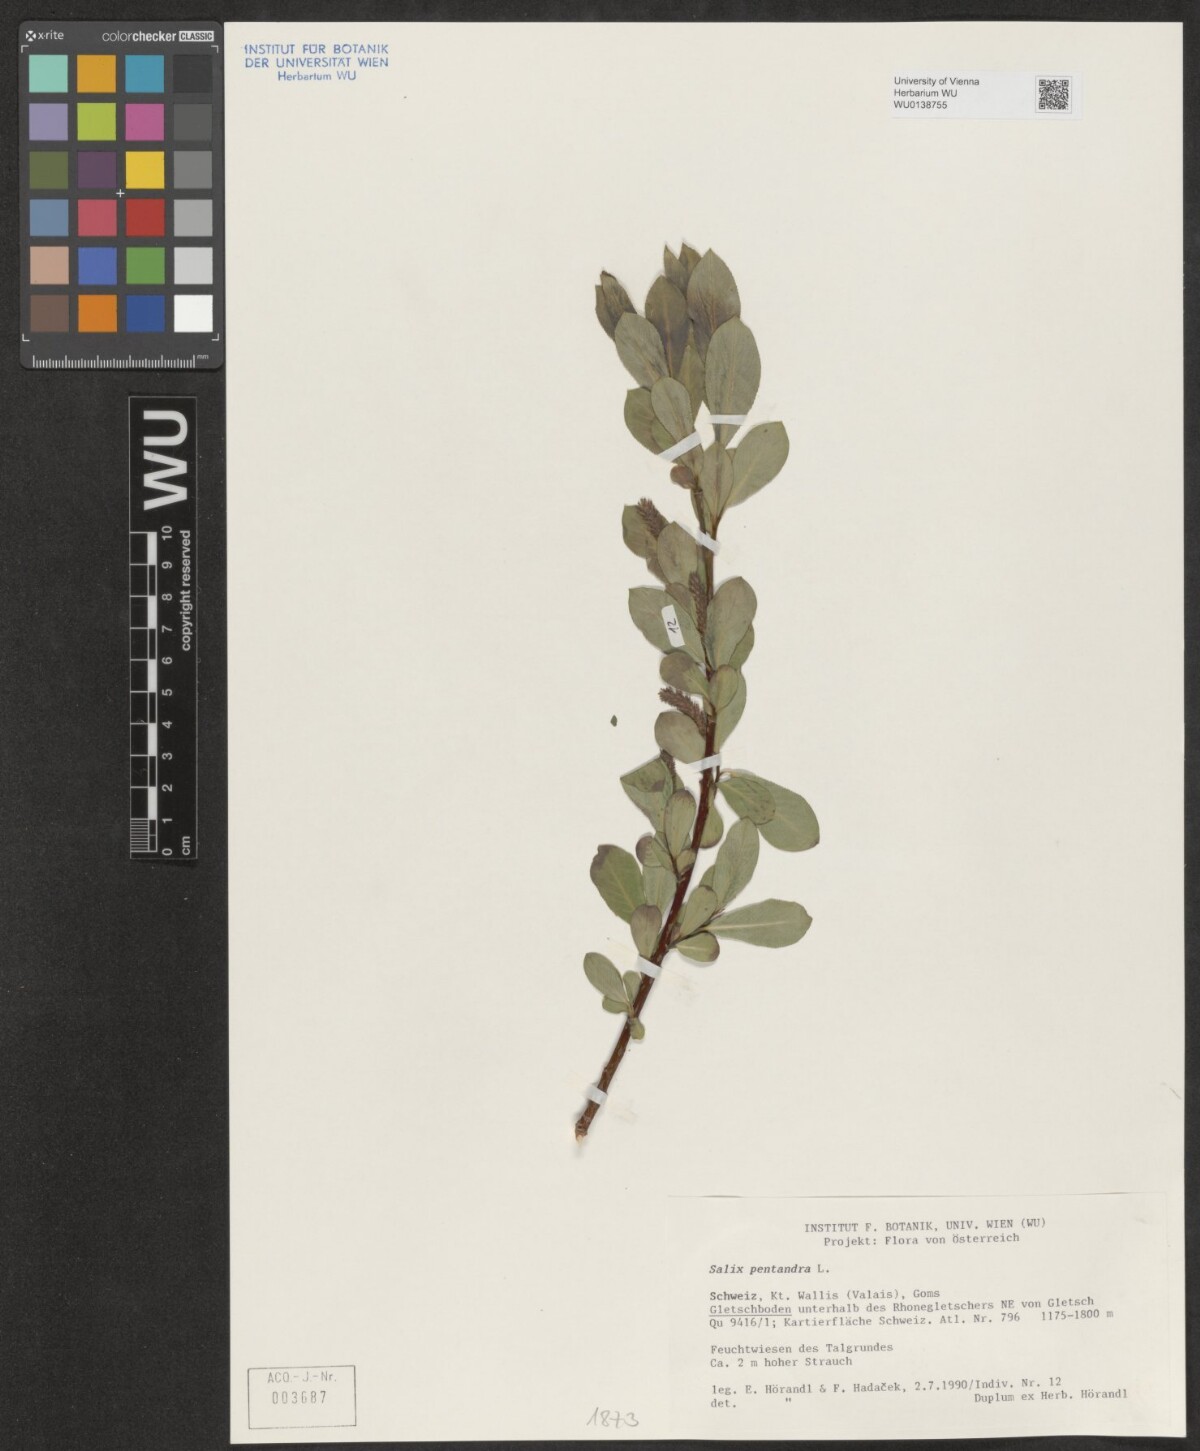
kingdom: Plantae
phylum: Tracheophyta
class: Magnoliopsida
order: Malpighiales
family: Salicaceae
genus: Salix
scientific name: Salix pentandra
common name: Bay willow
